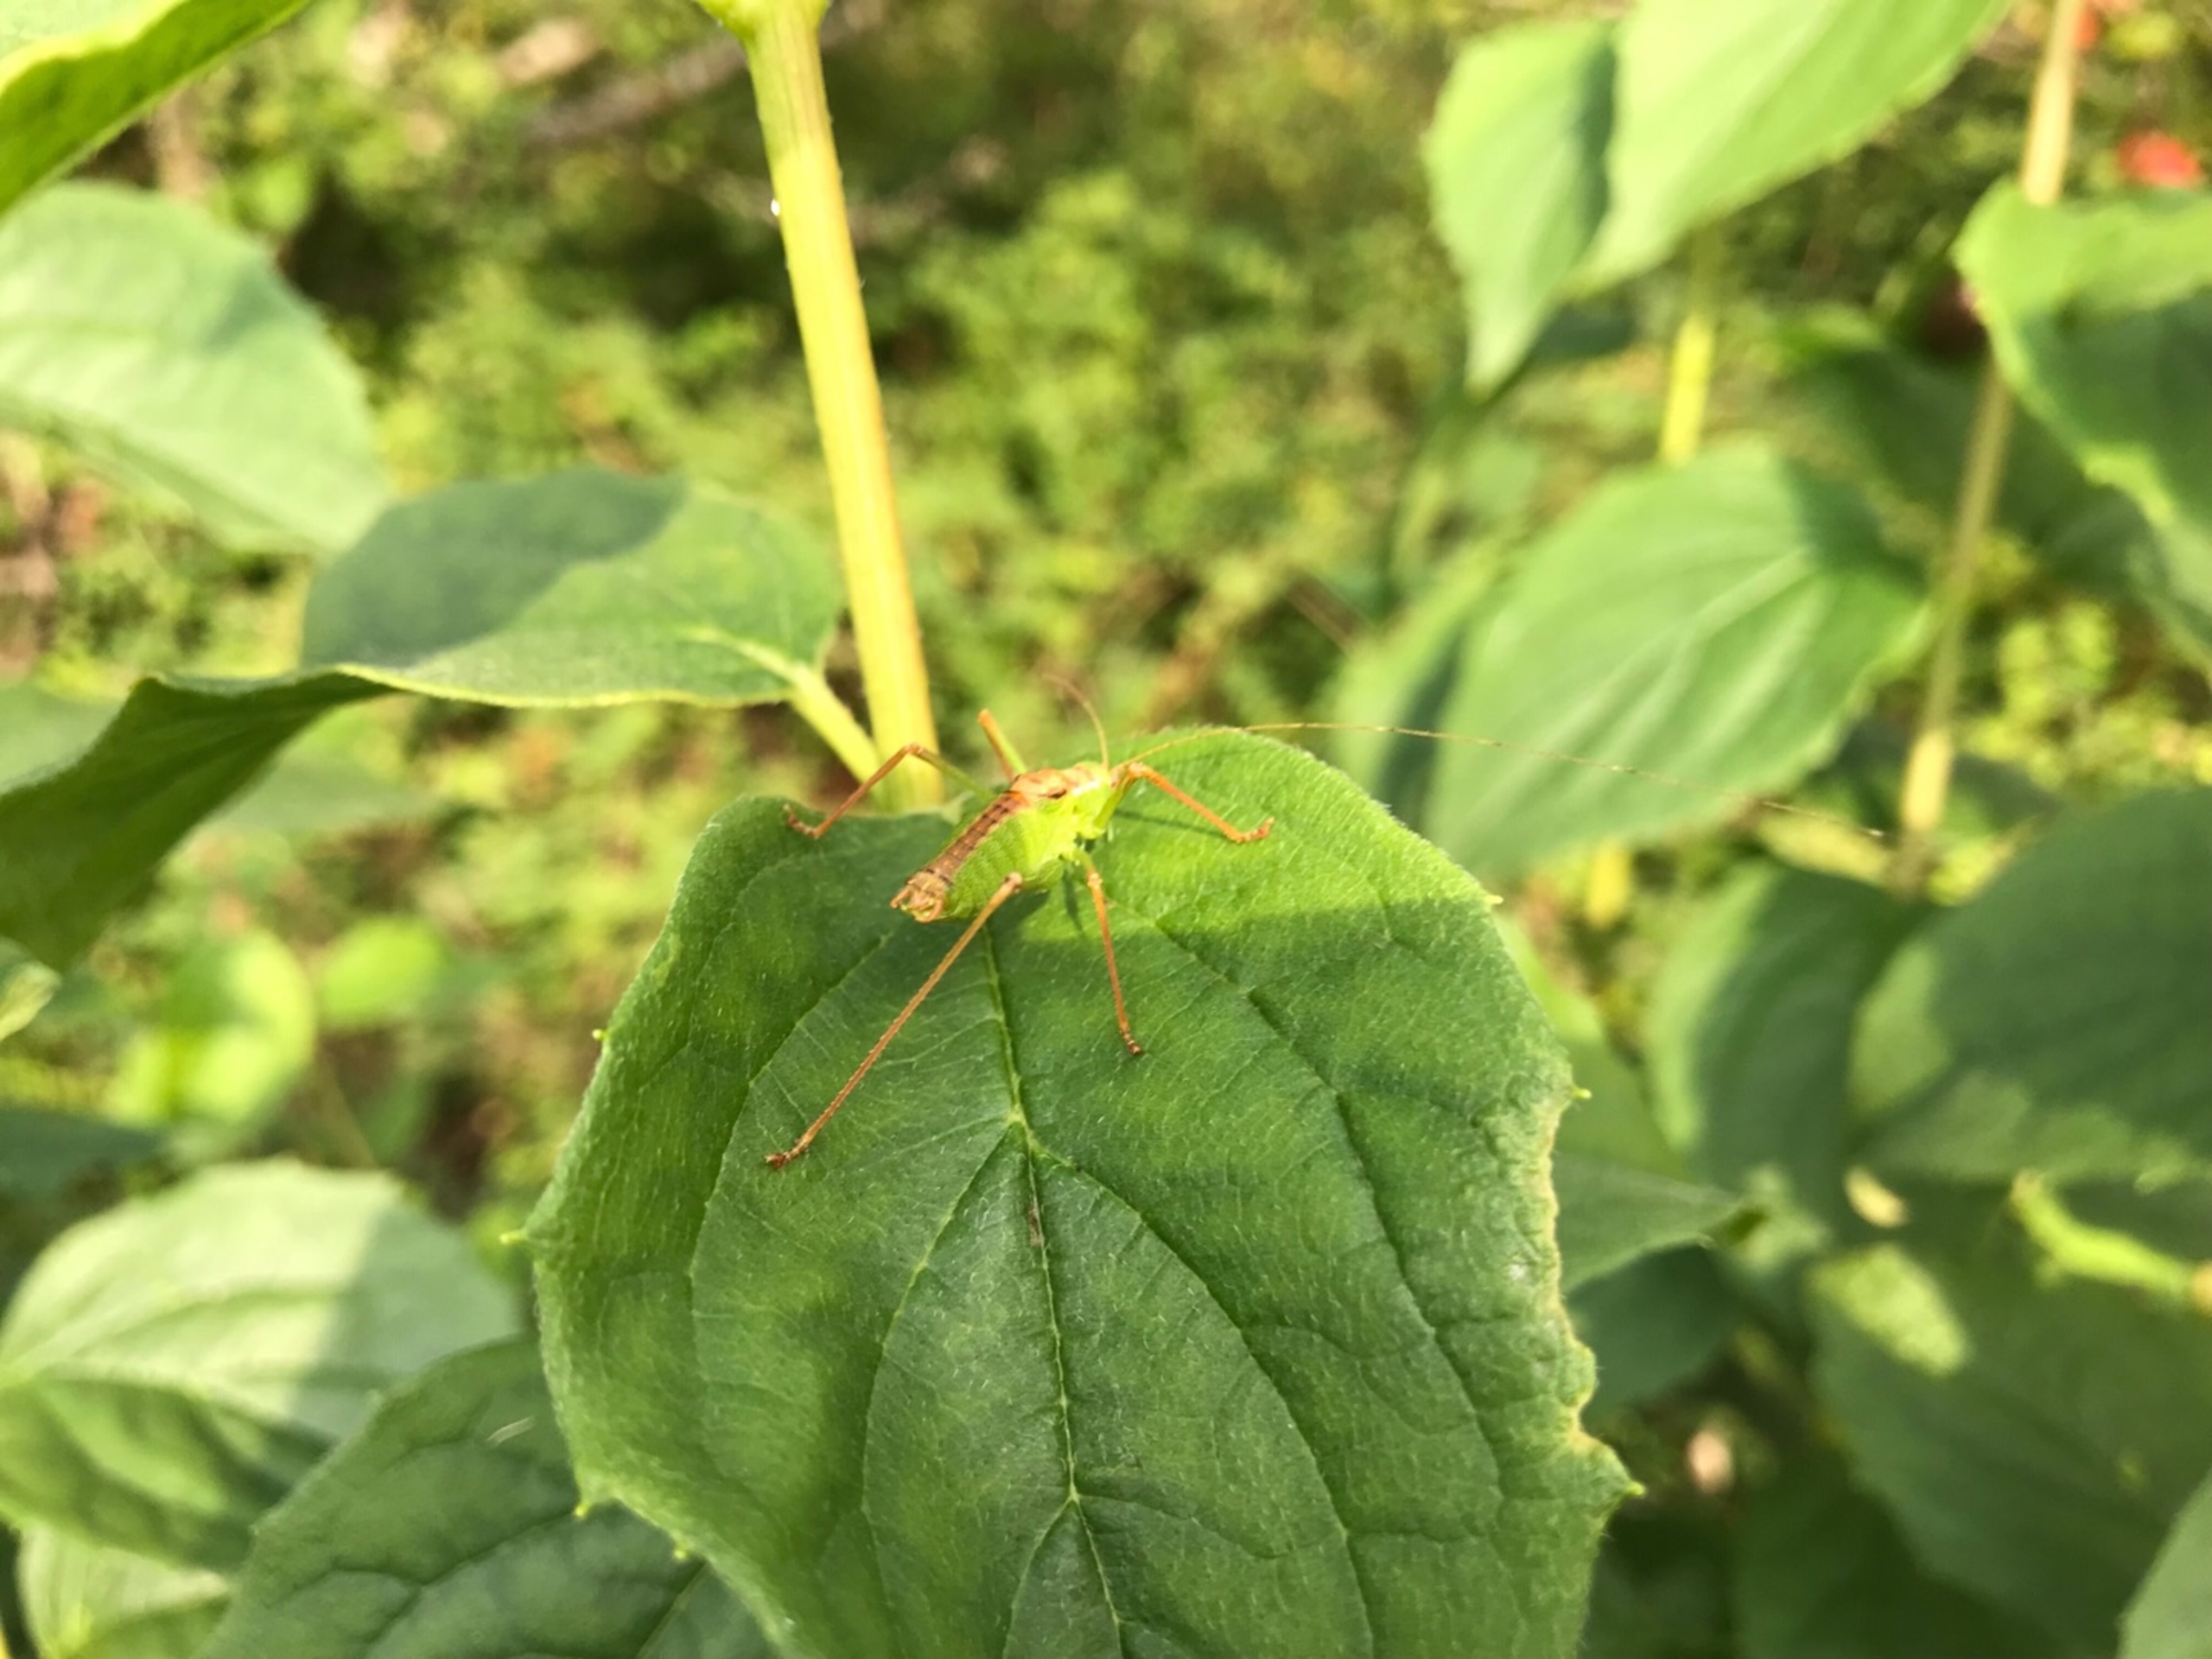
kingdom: Animalia
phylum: Arthropoda
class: Insecta
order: Orthoptera
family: Tettigoniidae
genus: Leptophyes
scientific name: Leptophyes punctatissima
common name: Krumknivgræshoppe
